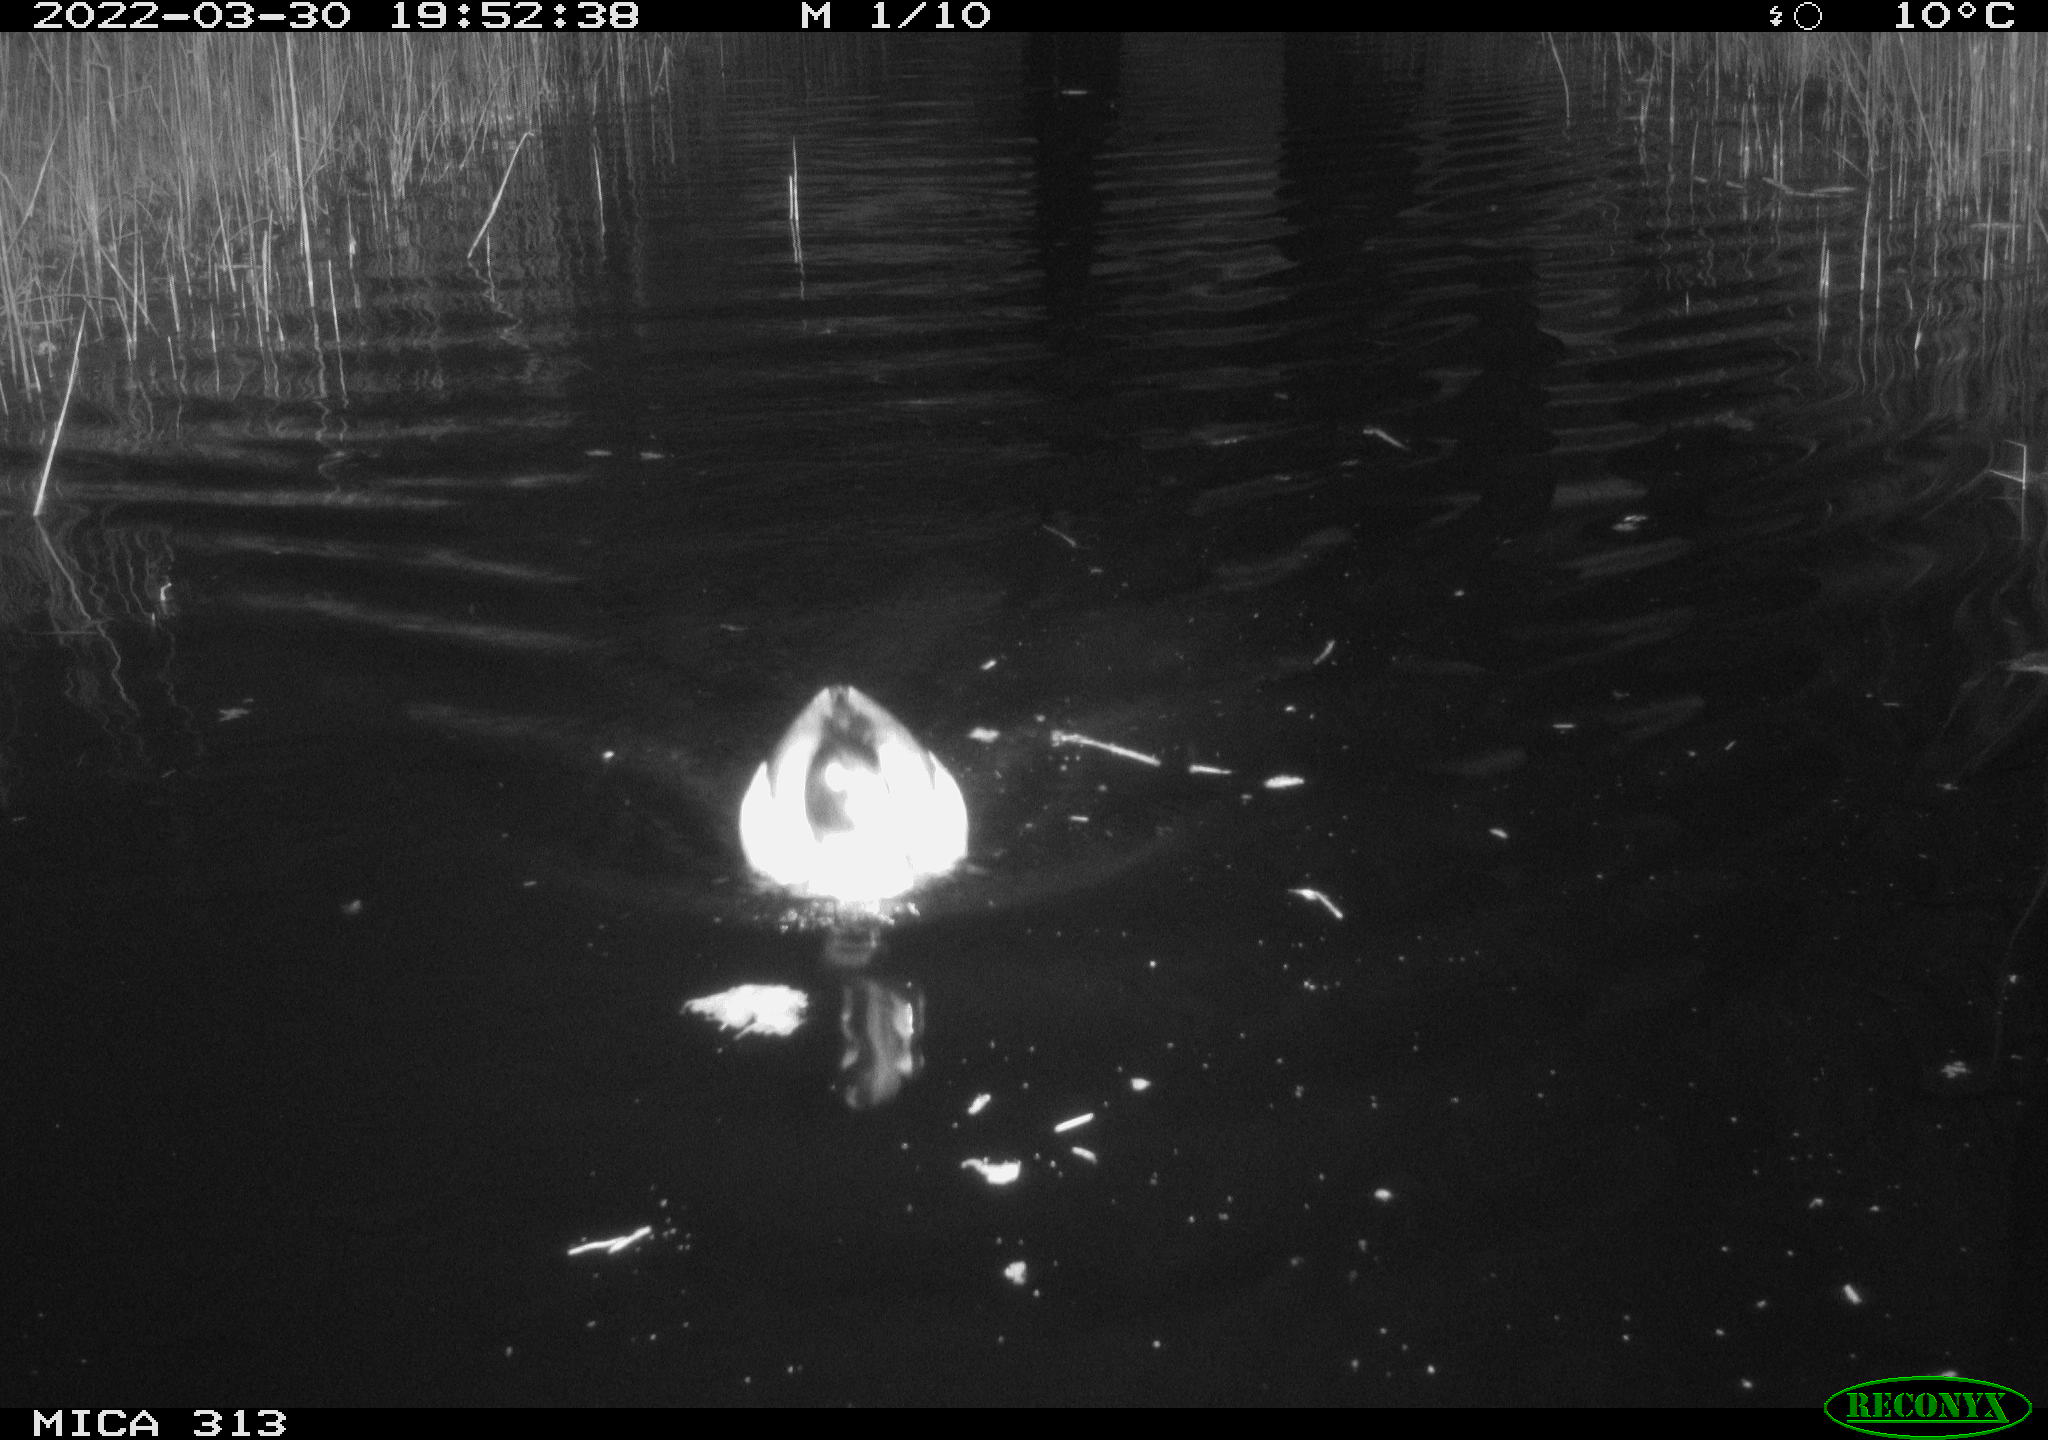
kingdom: Animalia
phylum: Chordata
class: Aves
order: Anseriformes
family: Anatidae
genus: Anas
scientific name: Anas platyrhynchos
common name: Mallard
